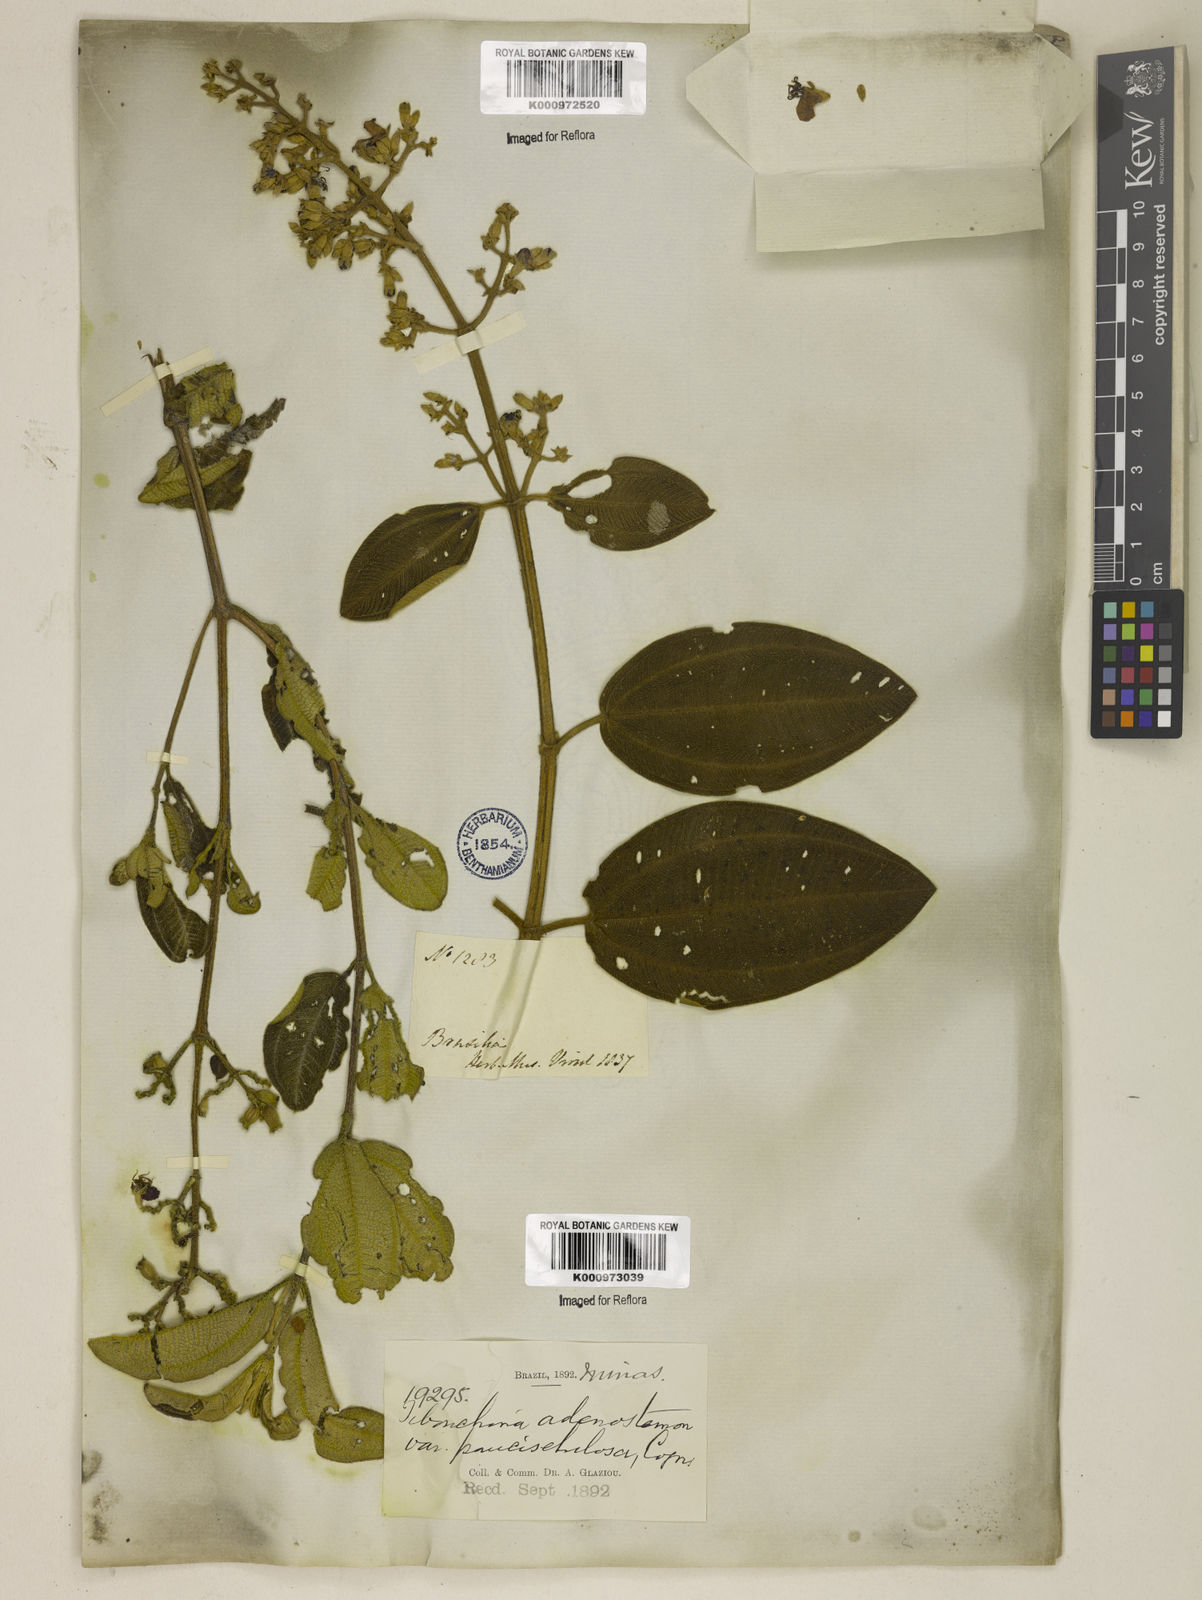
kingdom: Plantae
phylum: Tracheophyta
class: Magnoliopsida
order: Myrtales
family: Melastomataceae
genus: Pleroma
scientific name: Pleroma heteromallum
